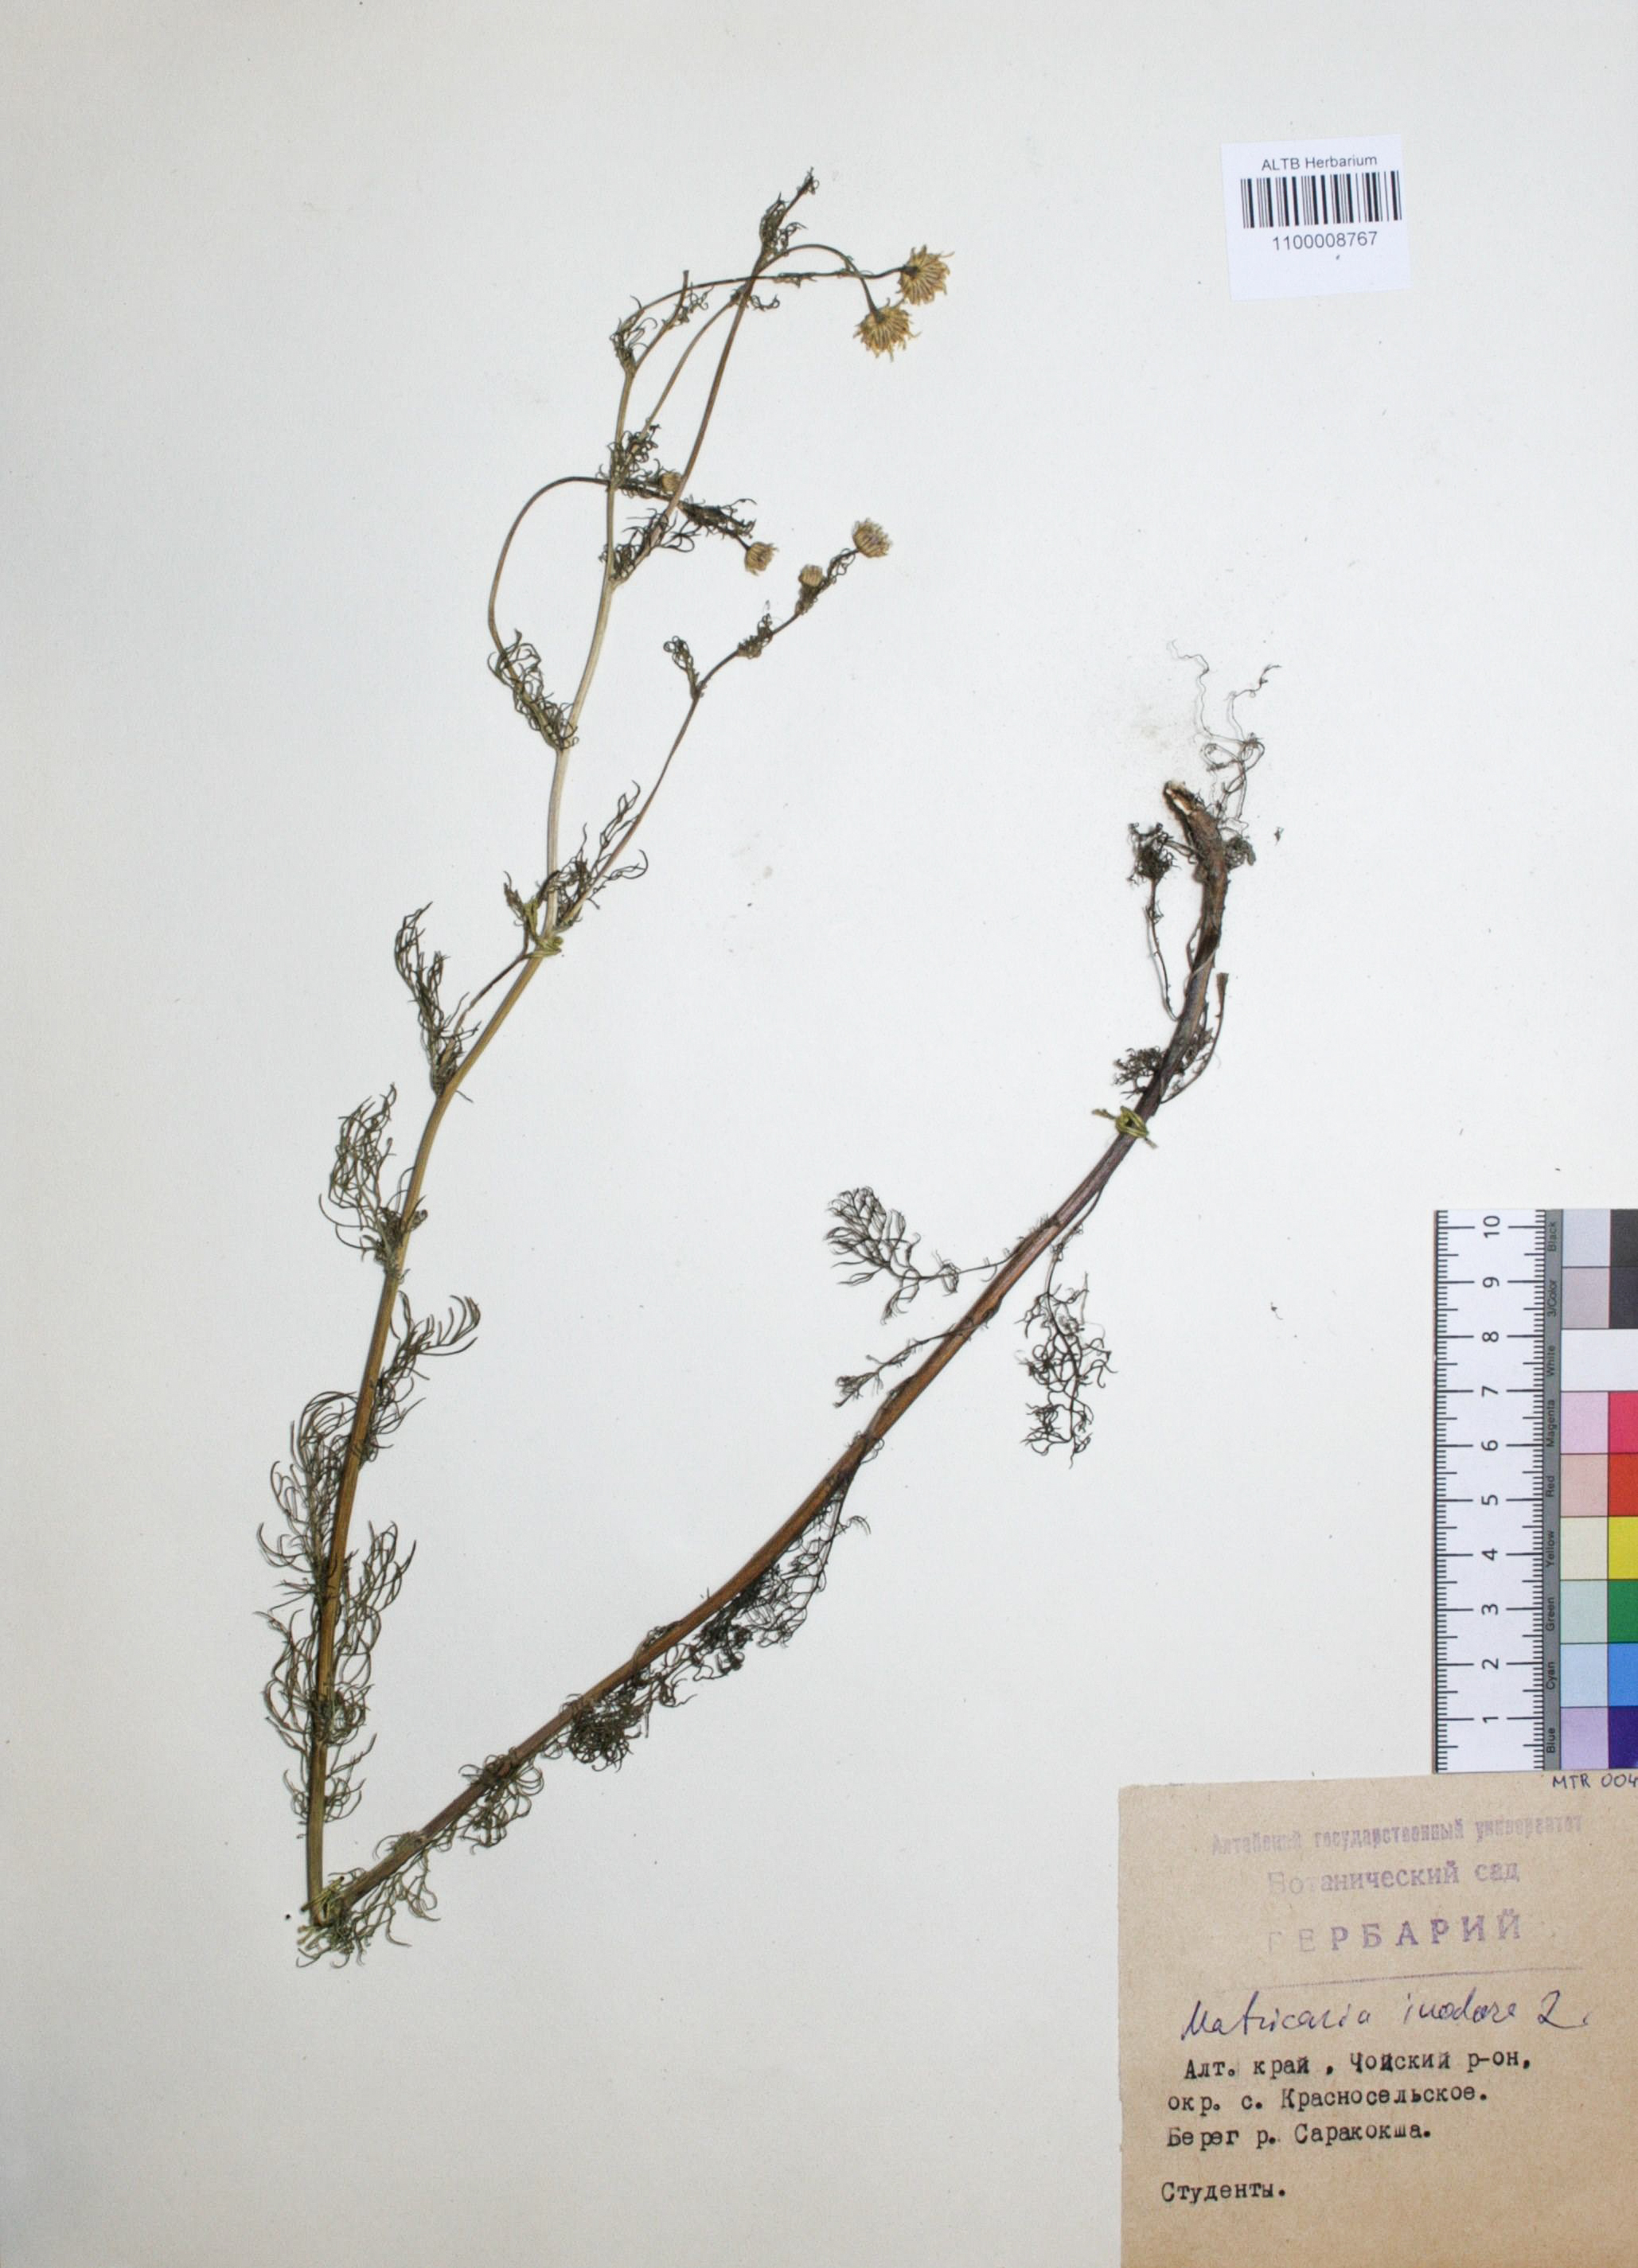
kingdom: Plantae
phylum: Tracheophyta
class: Magnoliopsida
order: Asterales
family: Asteraceae
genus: Tripleurospermum
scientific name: Tripleurospermum inodorum
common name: Scentless mayweed
